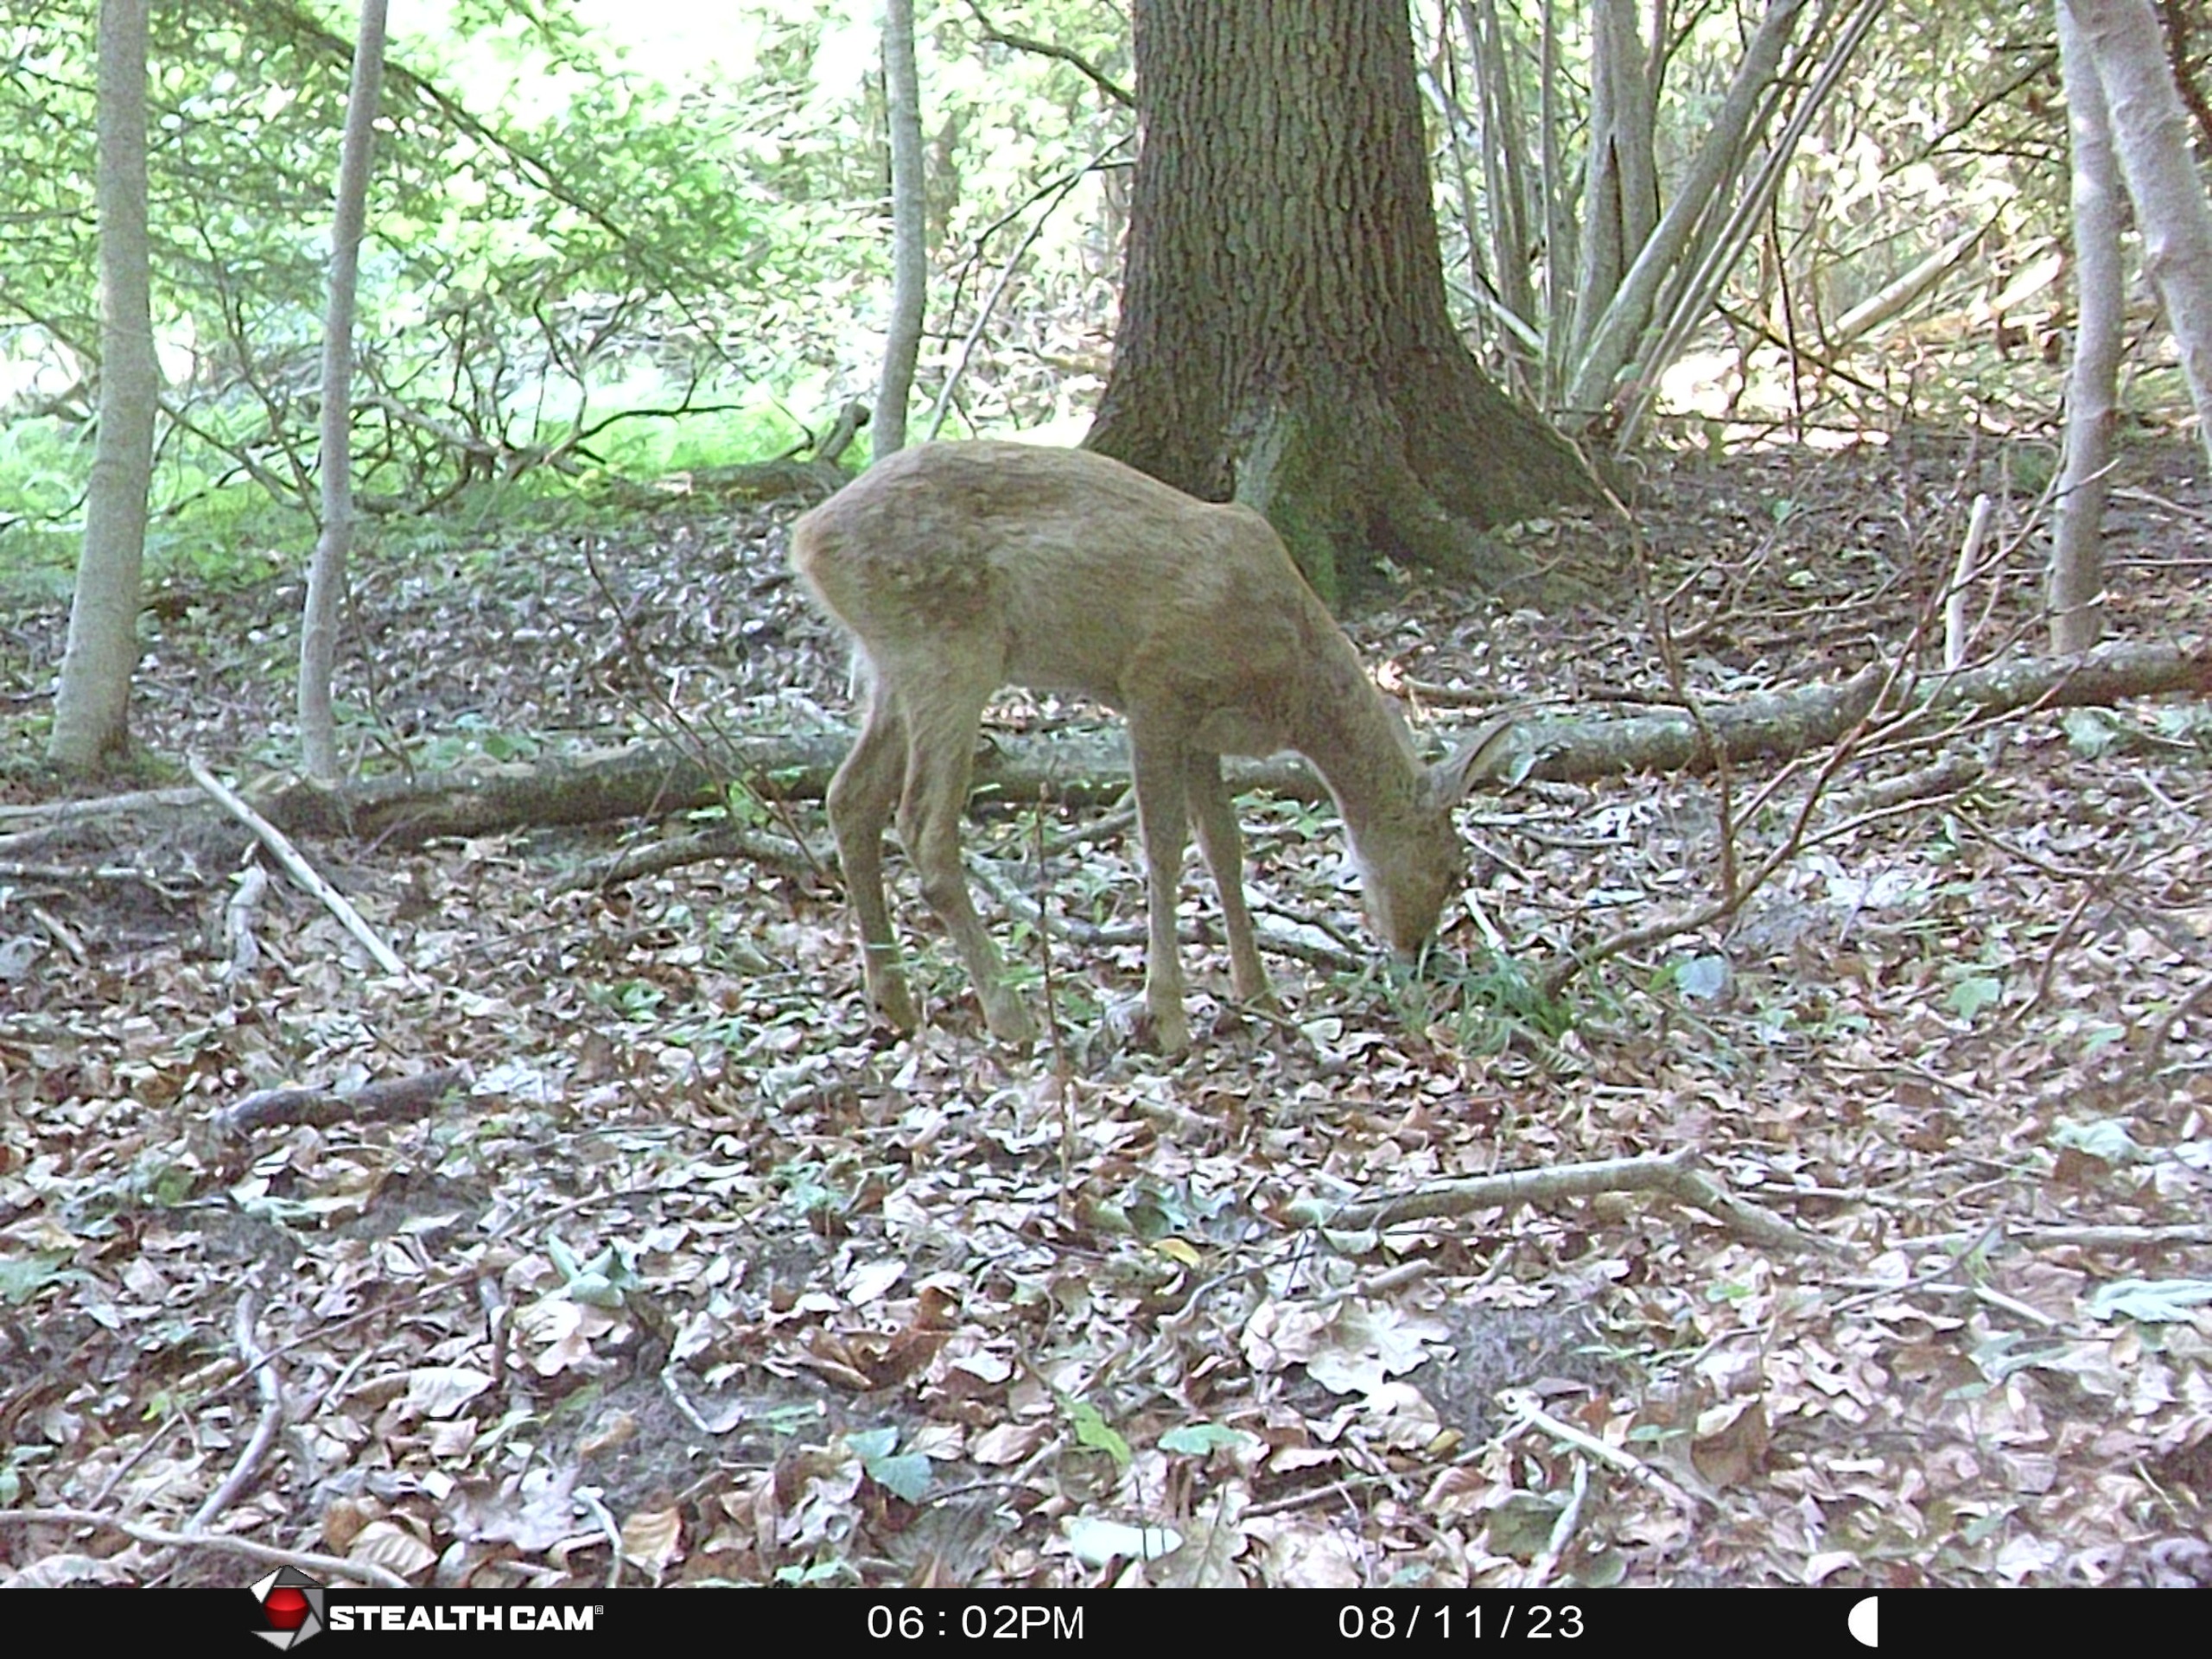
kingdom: Animalia
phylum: Chordata
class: Mammalia
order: Artiodactyla
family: Cervidae
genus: Capreolus
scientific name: Capreolus capreolus
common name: Rådyr
